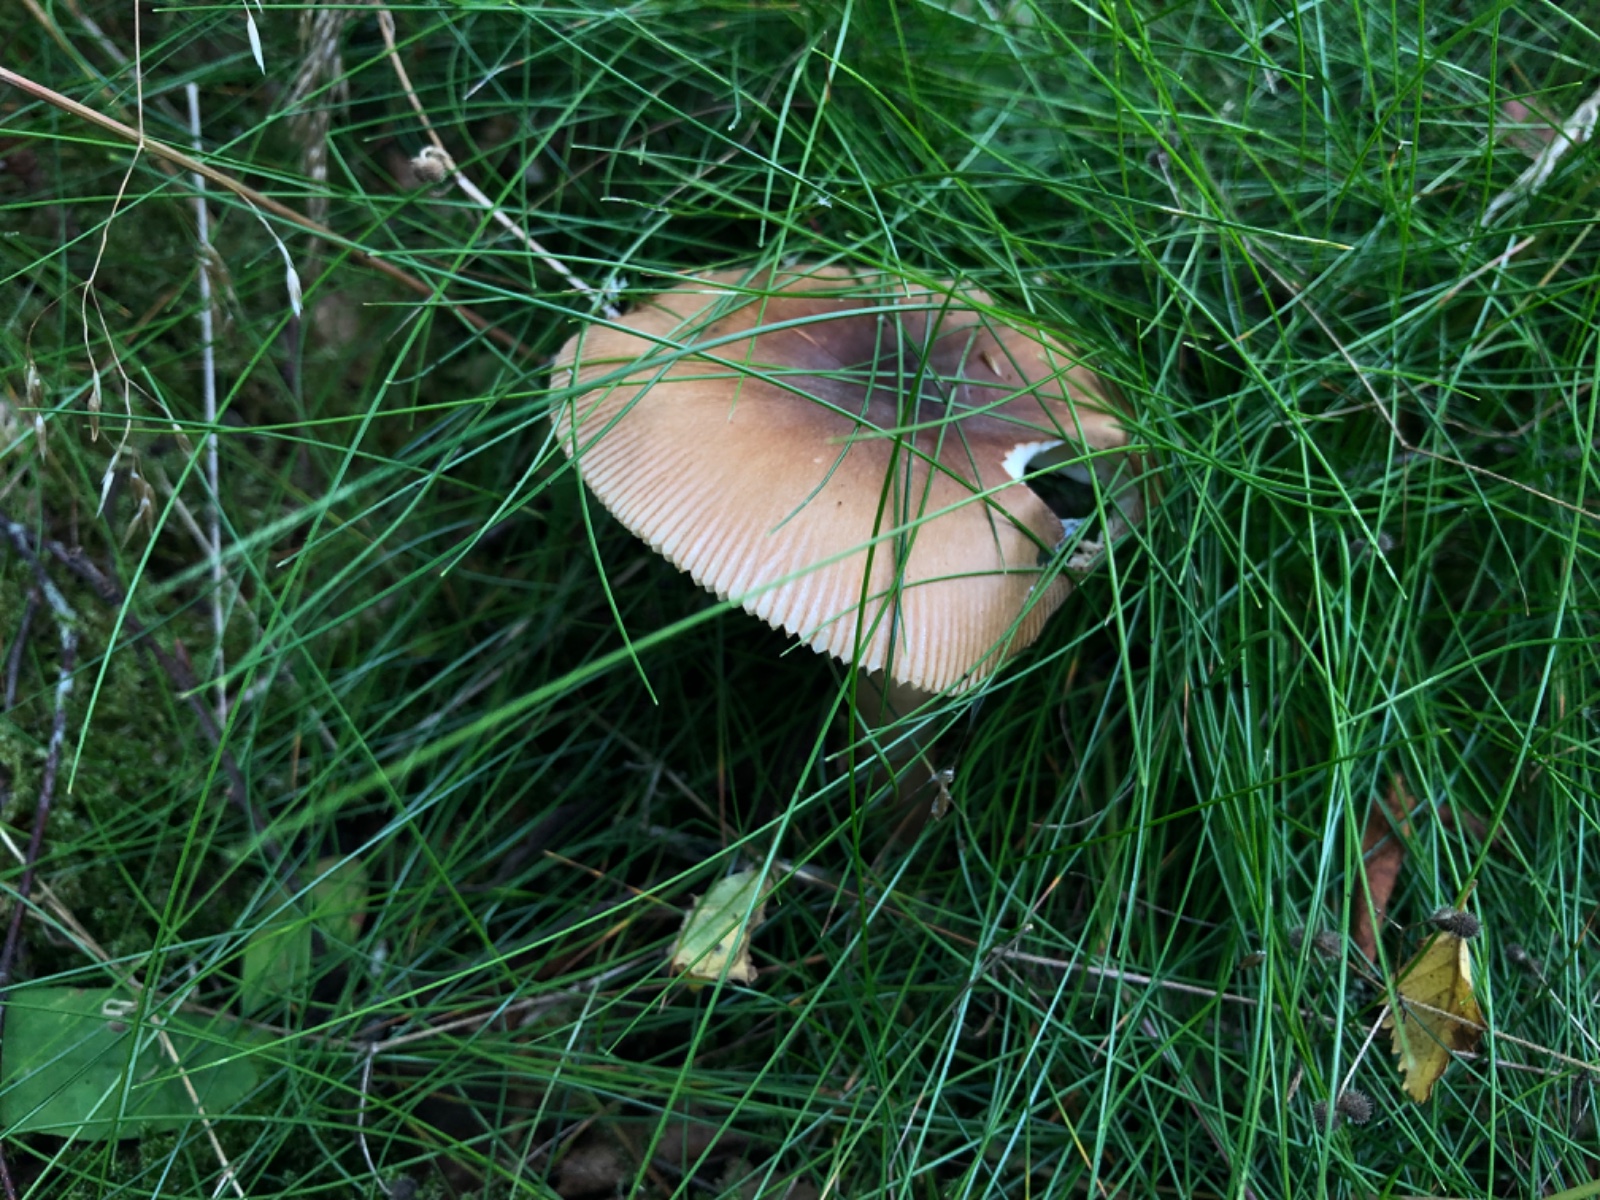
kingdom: Fungi
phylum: Basidiomycota
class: Agaricomycetes
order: Agaricales
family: Amanitaceae
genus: Amanita
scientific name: Amanita fulva
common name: brun kam-fluesvamp
